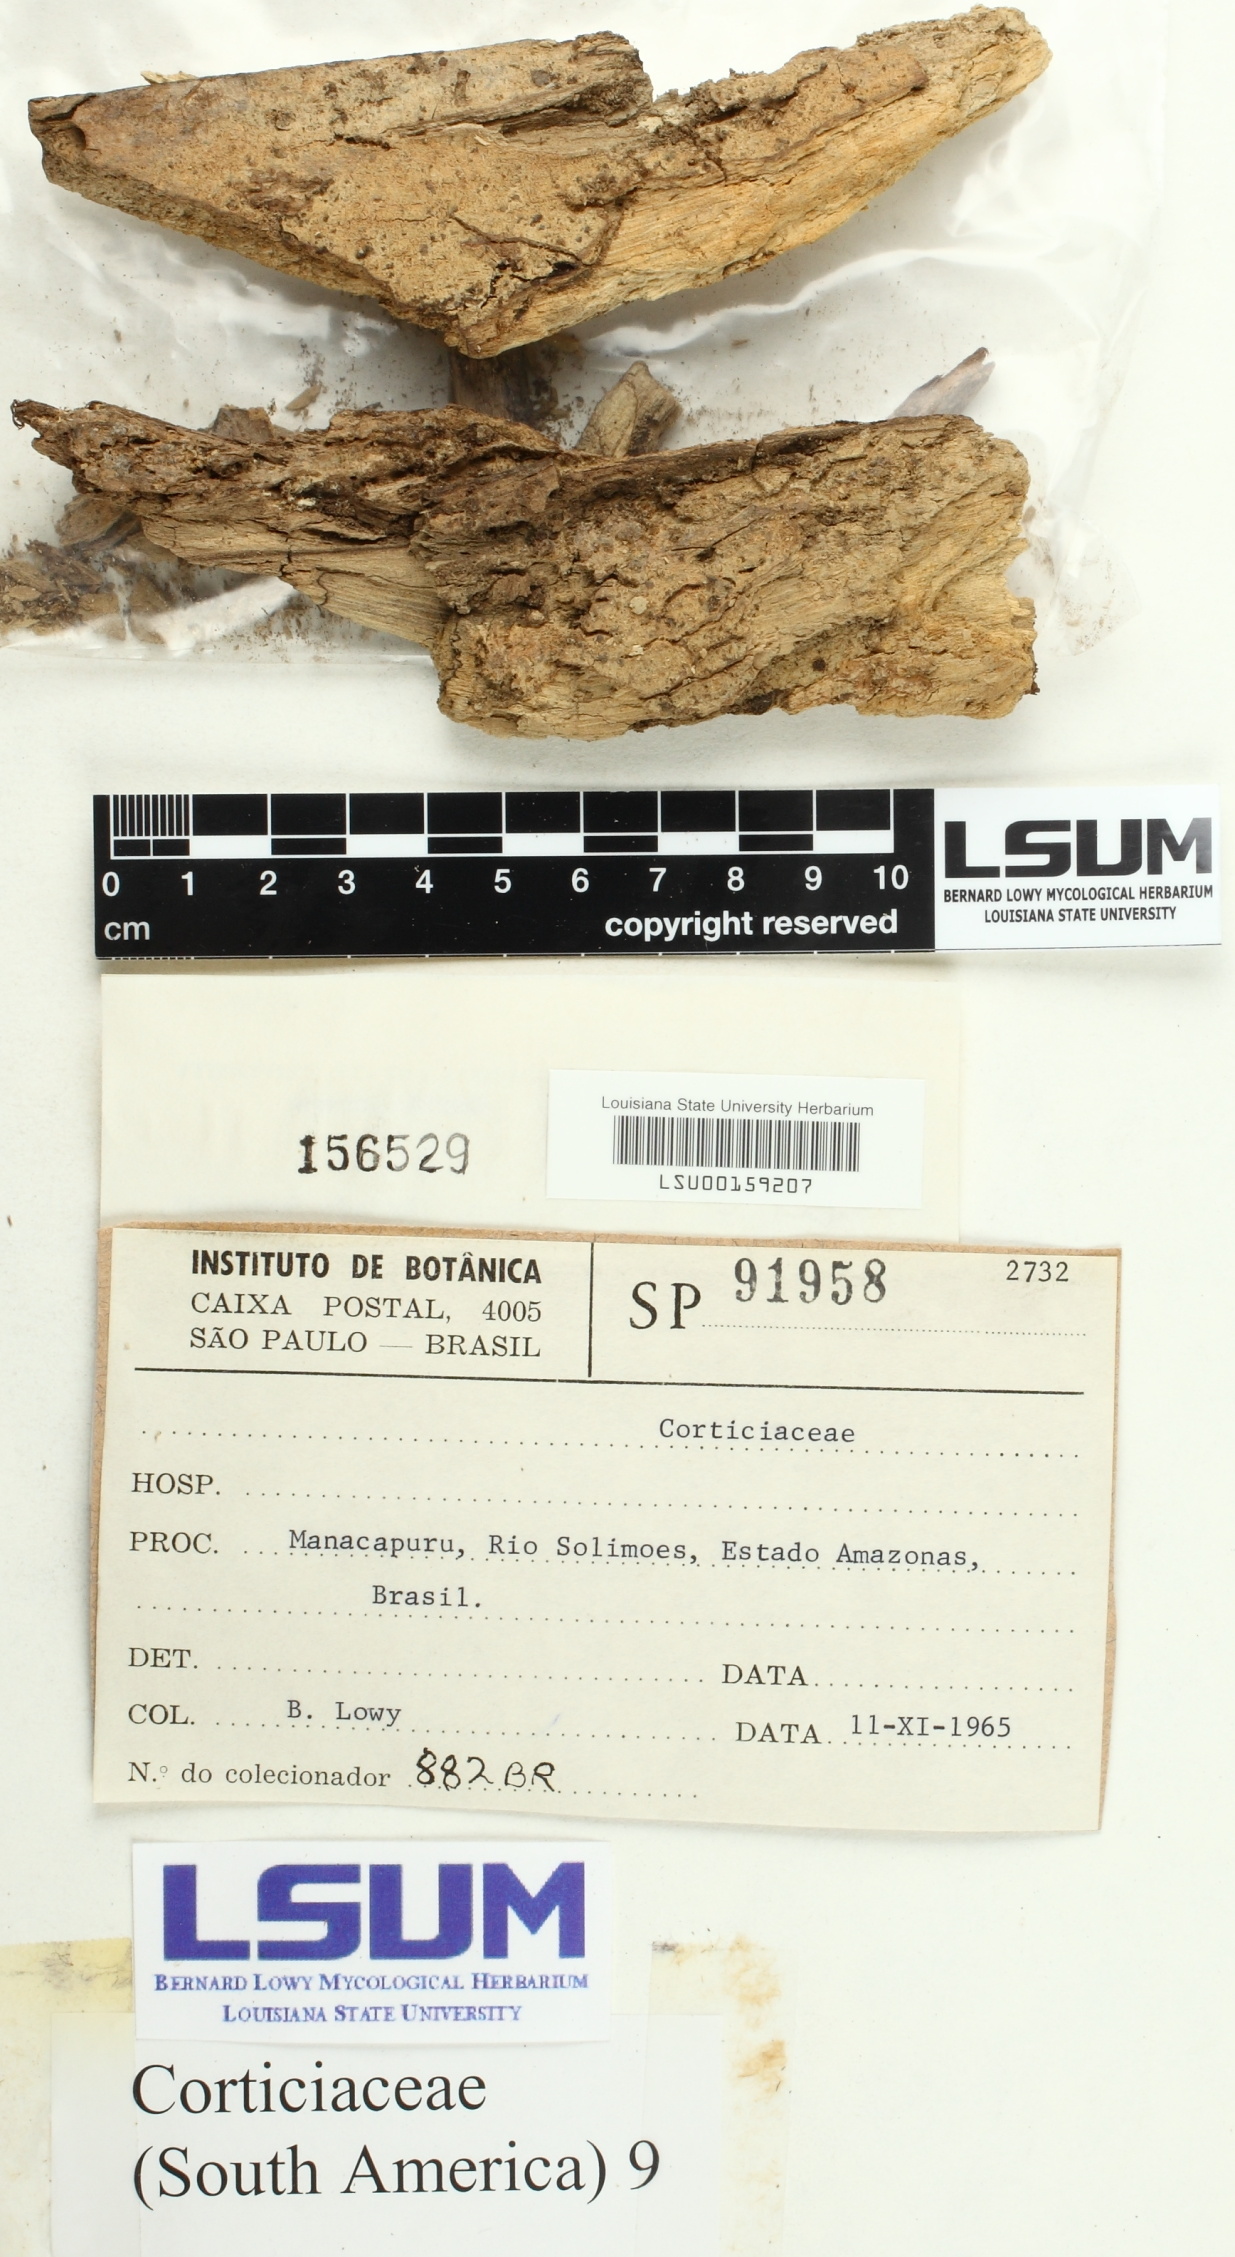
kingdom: Fungi
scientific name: Fungi
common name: Fungi
